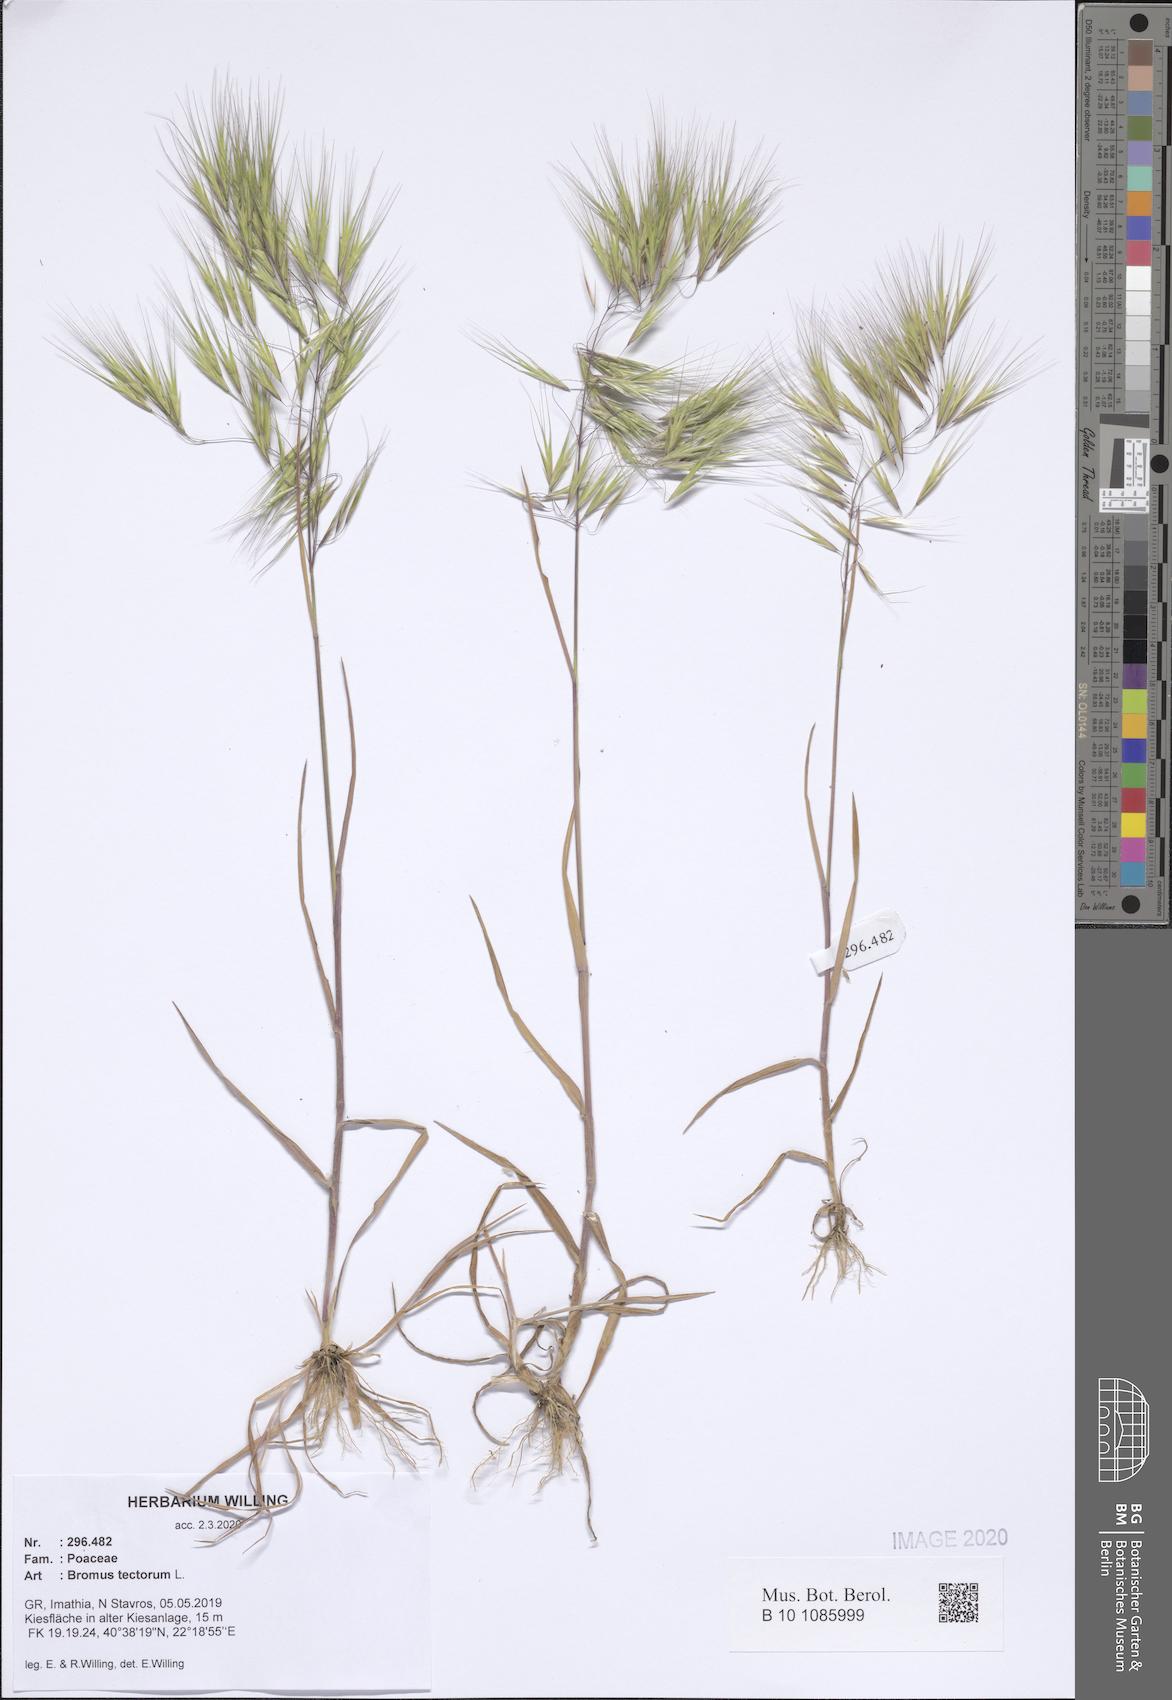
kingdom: Plantae
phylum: Tracheophyta
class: Liliopsida
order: Poales
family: Poaceae
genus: Bromus
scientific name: Bromus tectorum
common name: Cheatgrass
